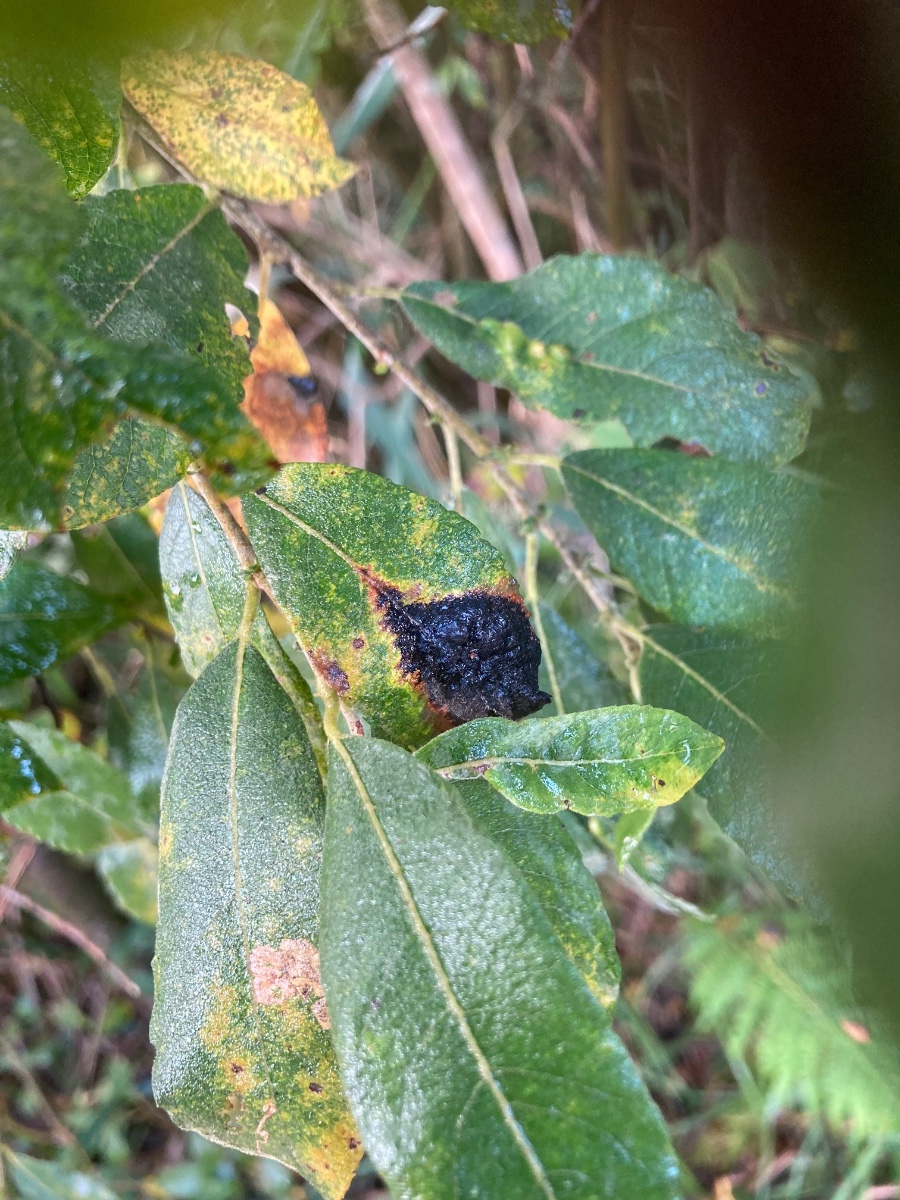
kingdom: Fungi
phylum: Ascomycota
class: Leotiomycetes
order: Rhytismatales
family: Rhytismataceae
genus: Rhytisma
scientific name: Rhytisma salicinum
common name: pile-rynkeplet
